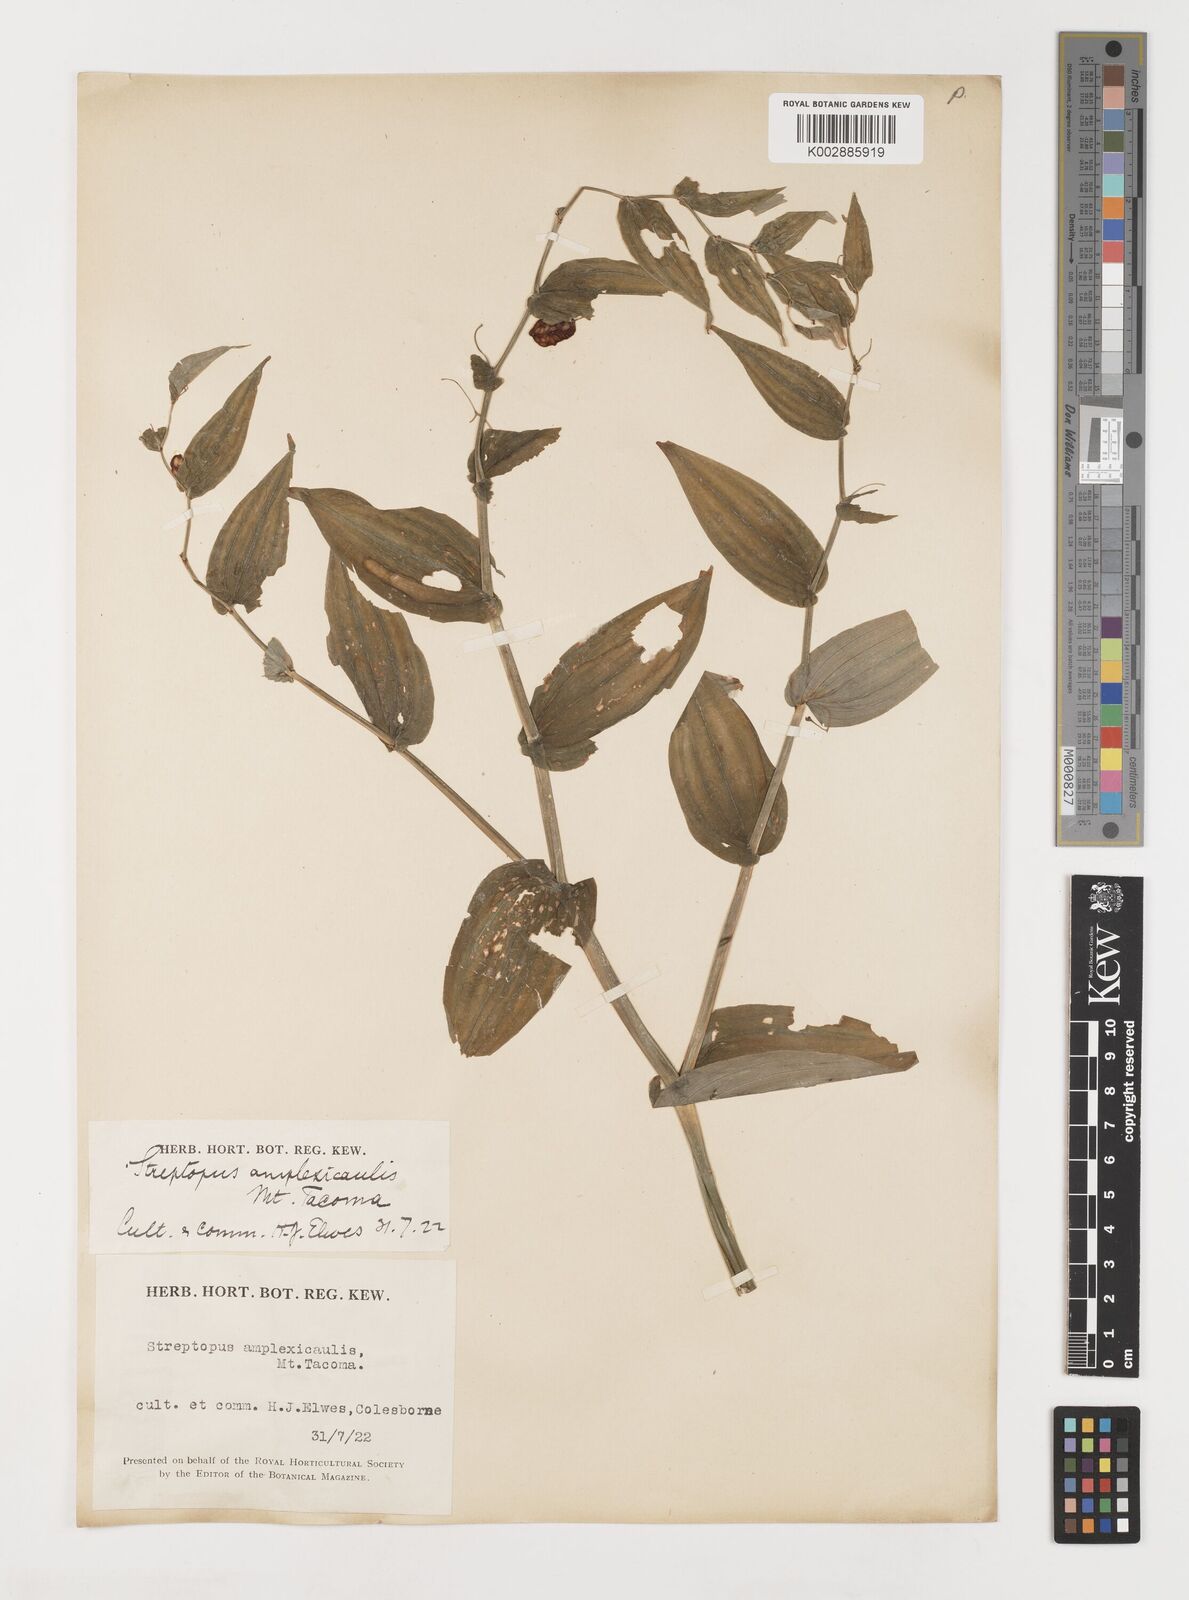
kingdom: Plantae
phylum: Tracheophyta
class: Liliopsida
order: Liliales
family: Liliaceae
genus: Streptopus
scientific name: Streptopus
